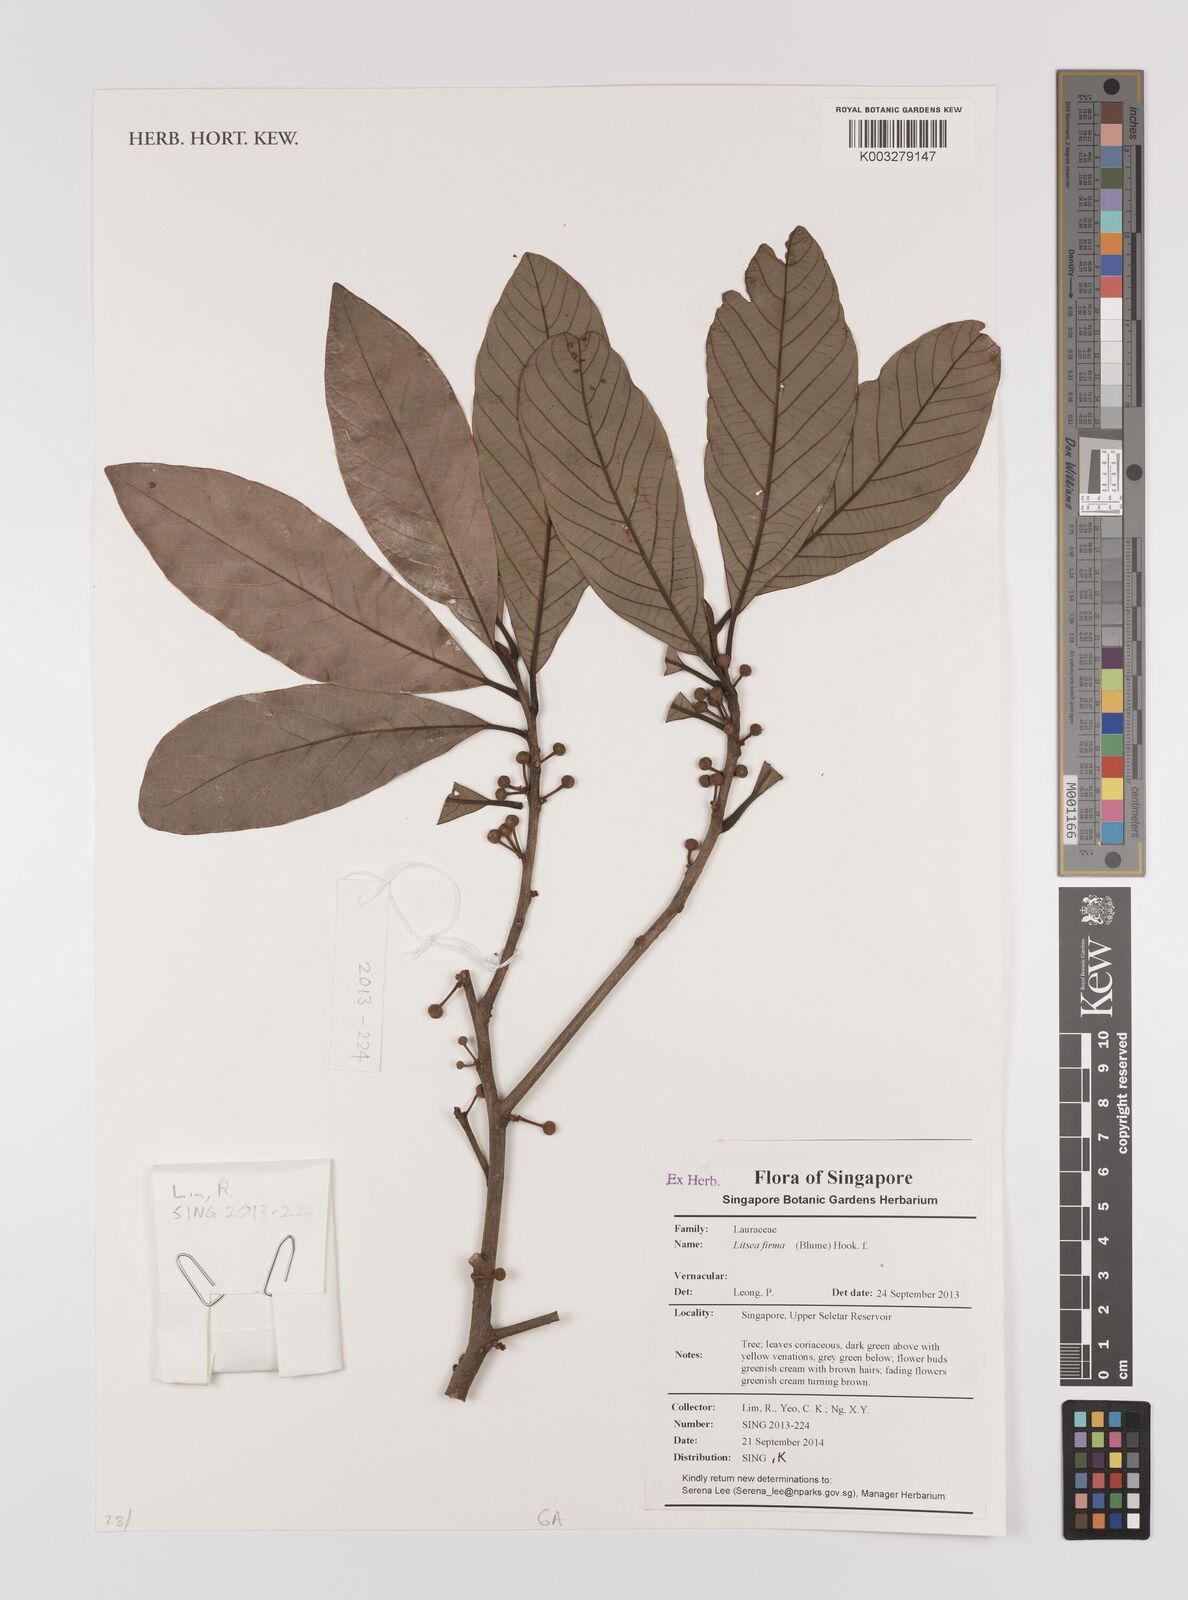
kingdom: Plantae
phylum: Tracheophyta
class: Magnoliopsida
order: Laurales
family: Lauraceae
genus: Litsea
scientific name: Litsea firma
